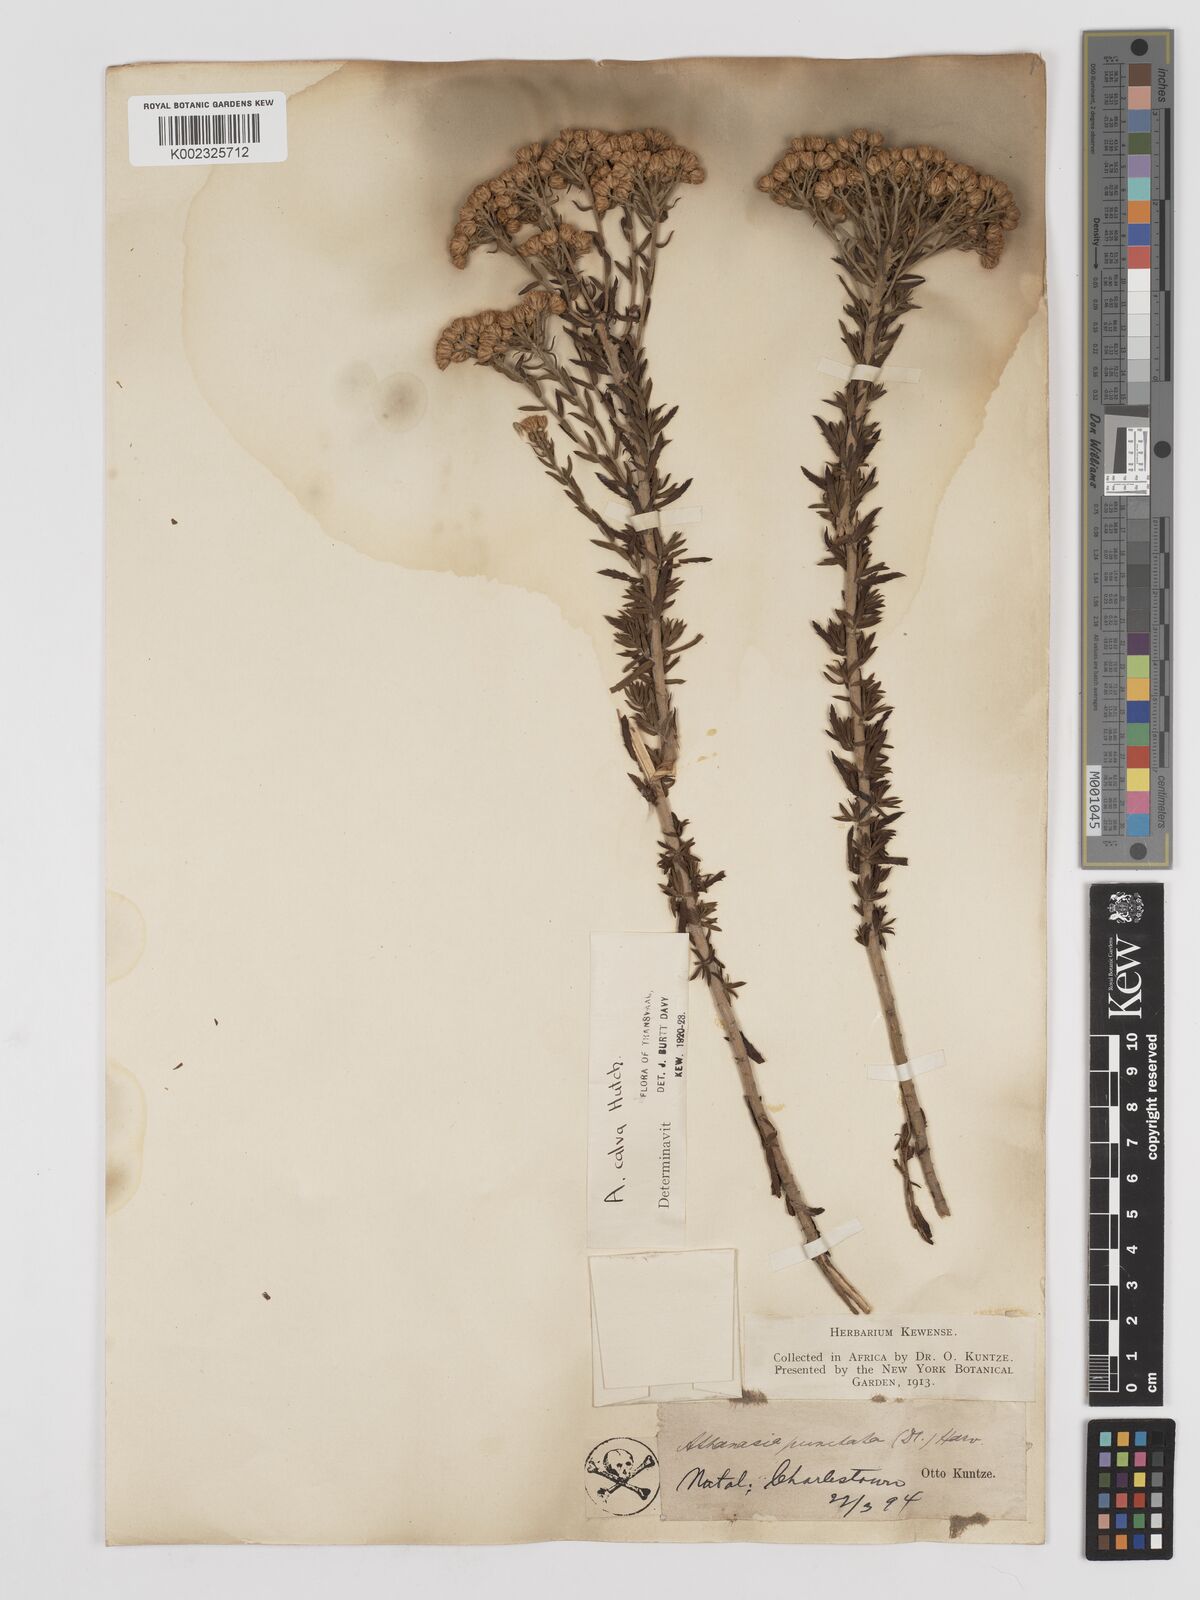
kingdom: Plantae
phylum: Tracheophyta
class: Magnoliopsida
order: Asterales
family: Asteraceae
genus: Inulanthera
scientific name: Inulanthera dregeana
